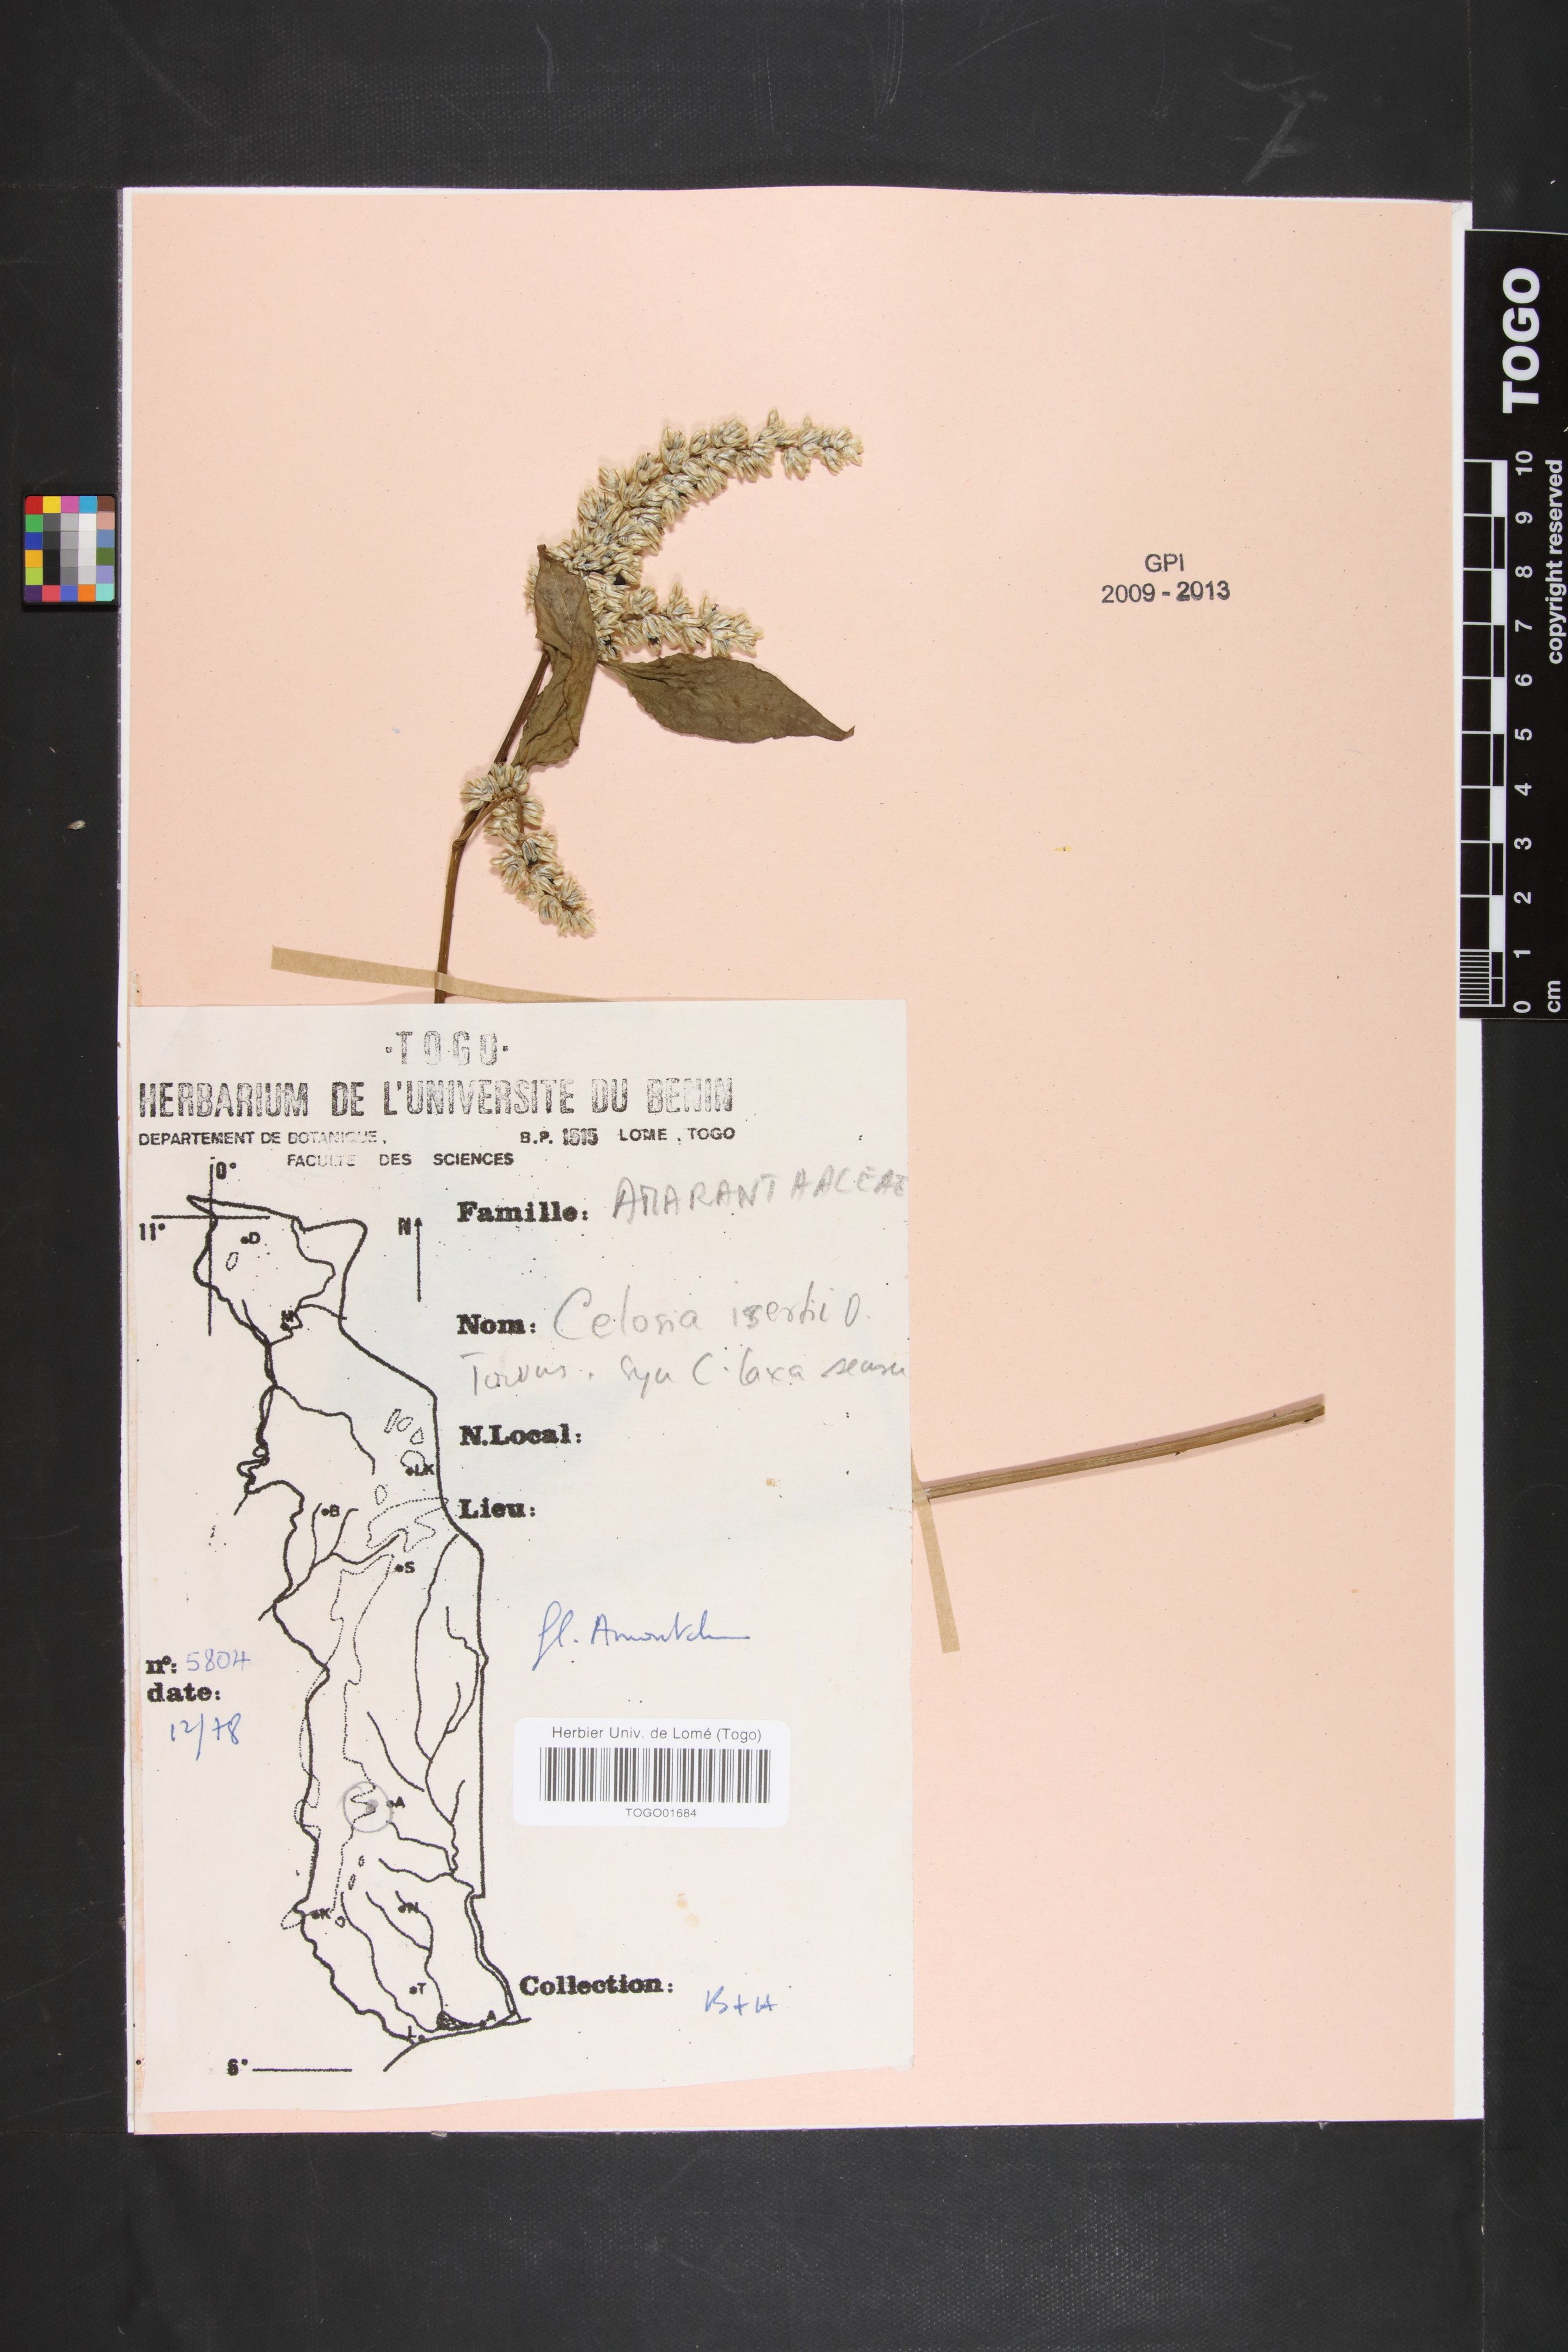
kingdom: Plantae
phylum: Tracheophyta
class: Magnoliopsida
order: Caryophyllales
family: Amaranthaceae
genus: Celosia
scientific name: Celosia isertii
